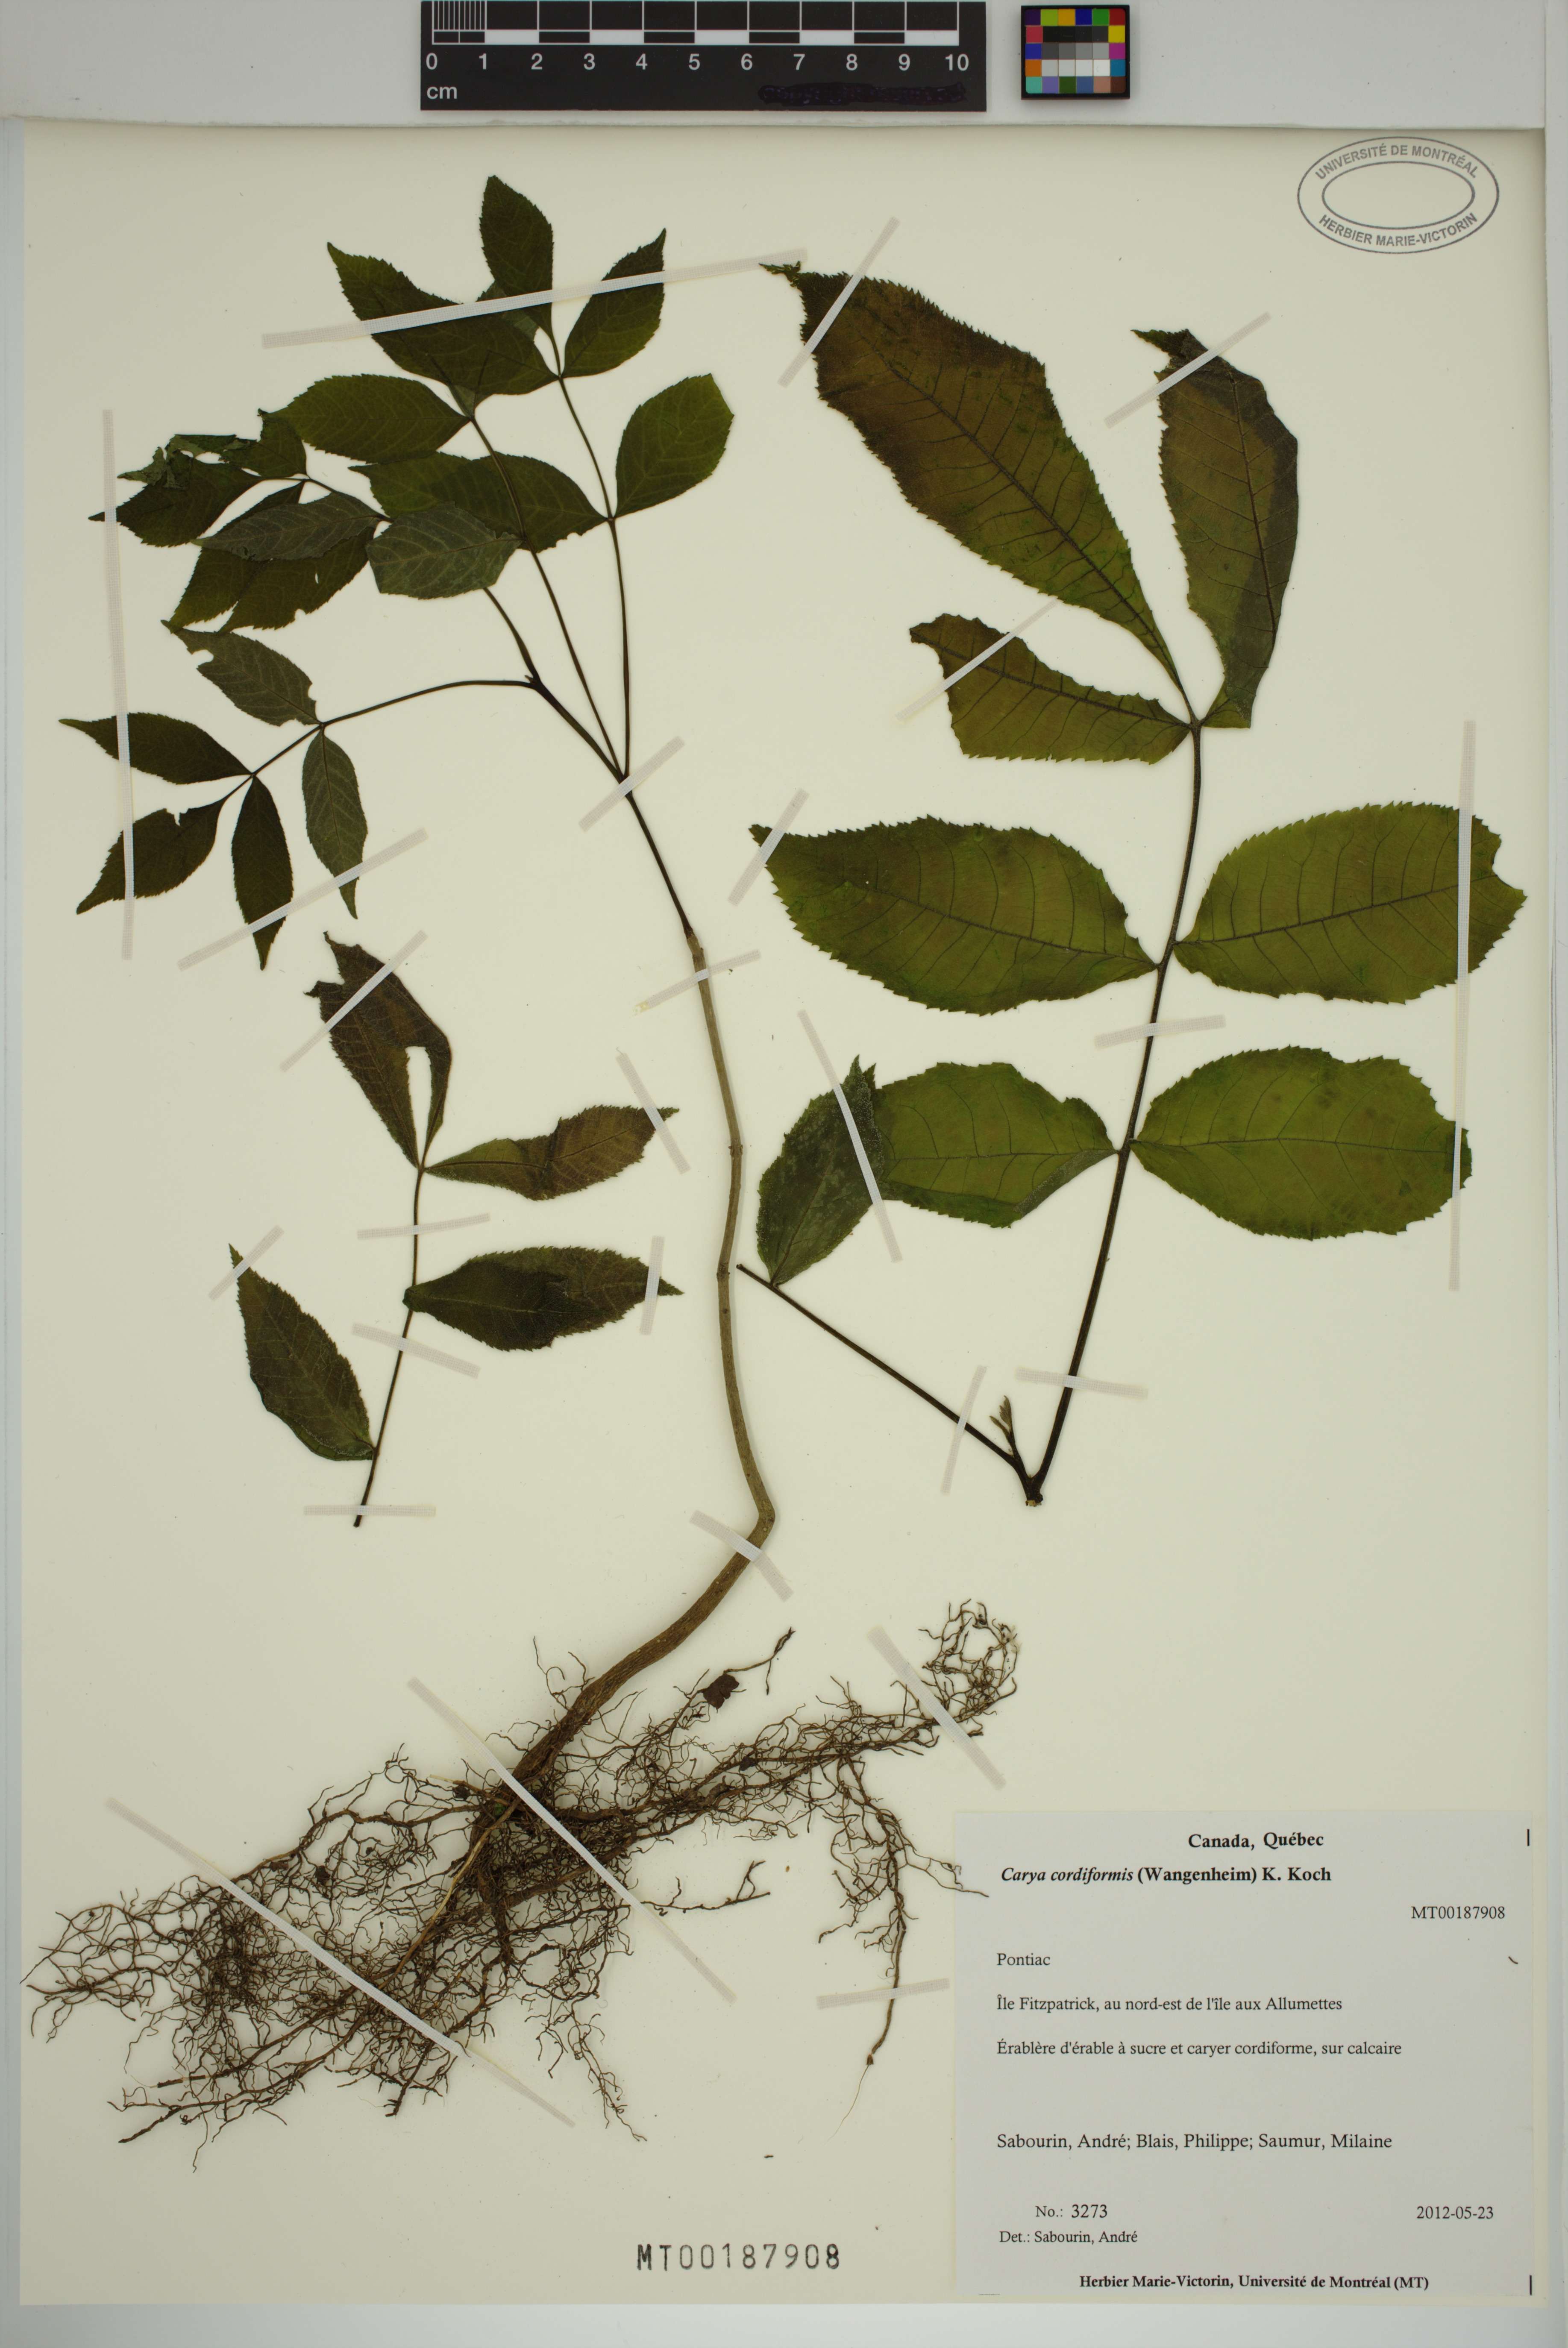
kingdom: Plantae
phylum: Tracheophyta
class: Magnoliopsida
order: Fagales
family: Juglandaceae
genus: Carya
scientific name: Carya cordiformis
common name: Bitternut hickory
